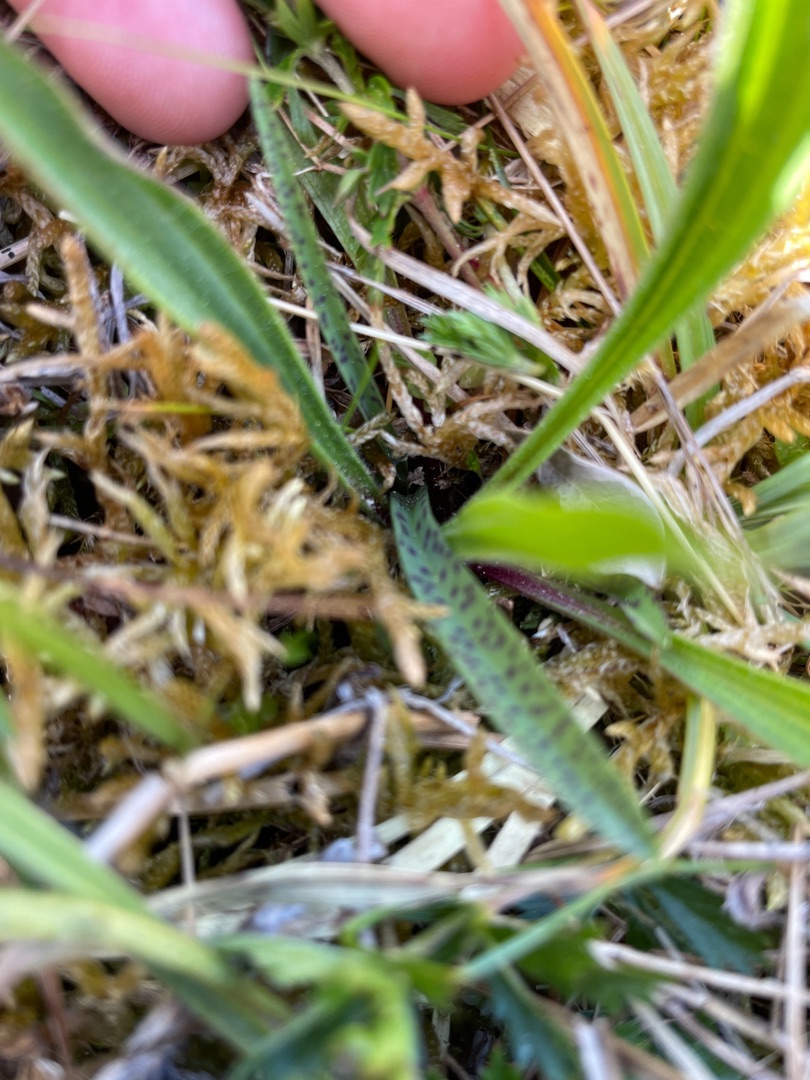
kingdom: Plantae
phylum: Tracheophyta
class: Liliopsida
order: Asparagales
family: Orchidaceae
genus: Dactylorhiza
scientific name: Dactylorhiza maculata
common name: Plettet gøgeurt
